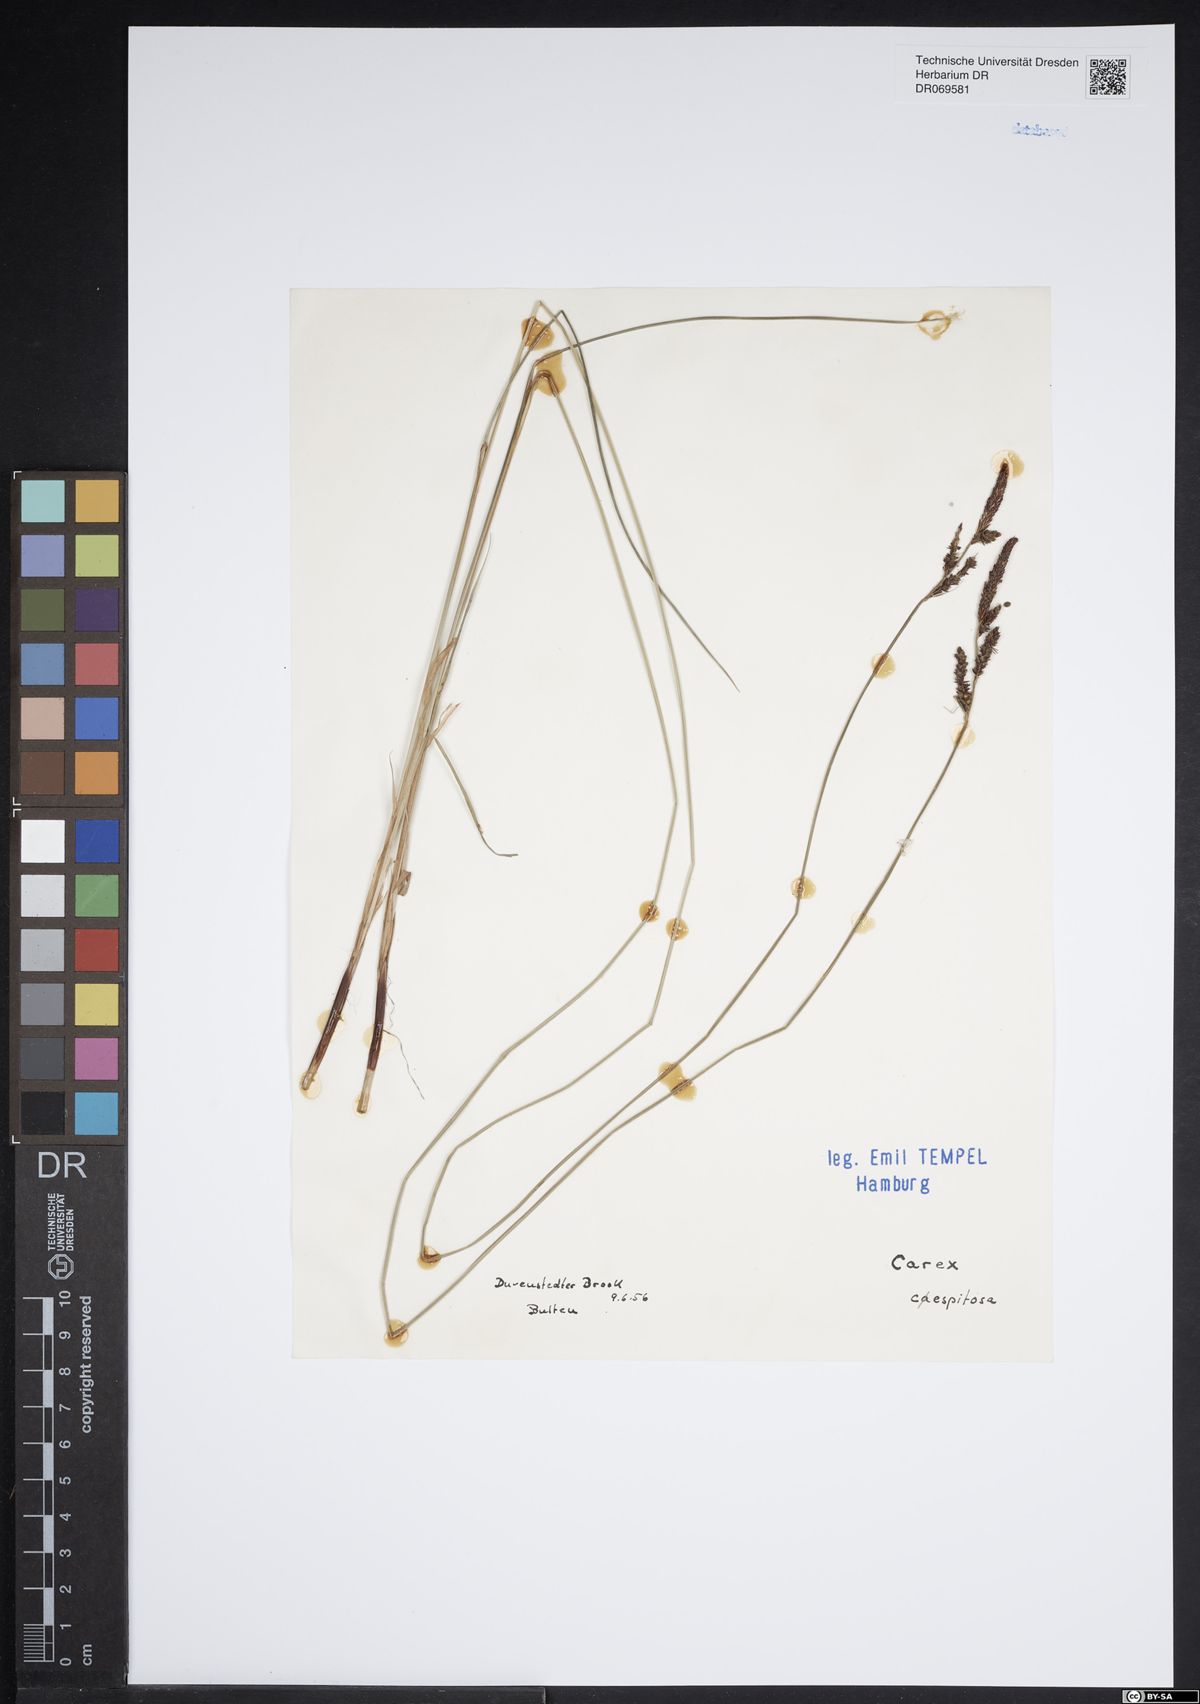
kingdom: Plantae
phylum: Tracheophyta
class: Liliopsida
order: Poales
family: Cyperaceae
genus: Carex
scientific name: Carex cespitosa
